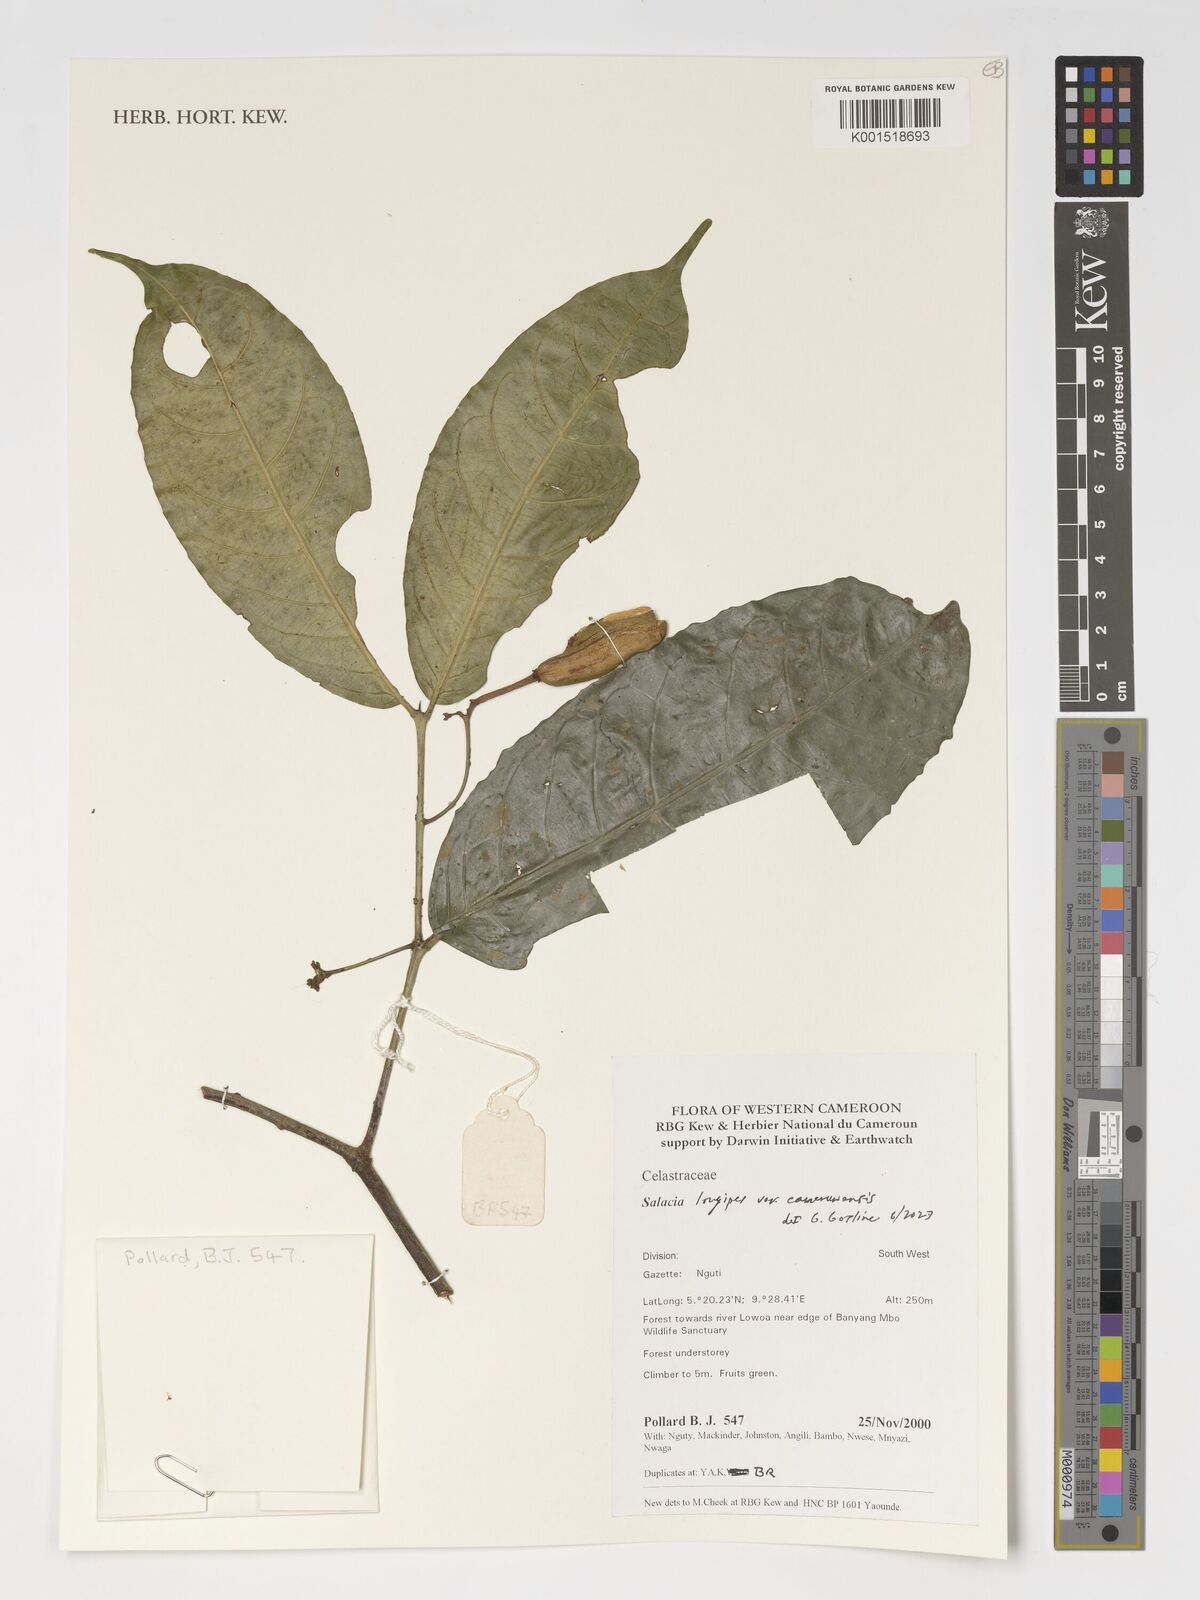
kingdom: Plantae
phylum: Tracheophyta
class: Magnoliopsida
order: Celastrales
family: Celastraceae
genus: Salacia
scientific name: Salacia longipes
